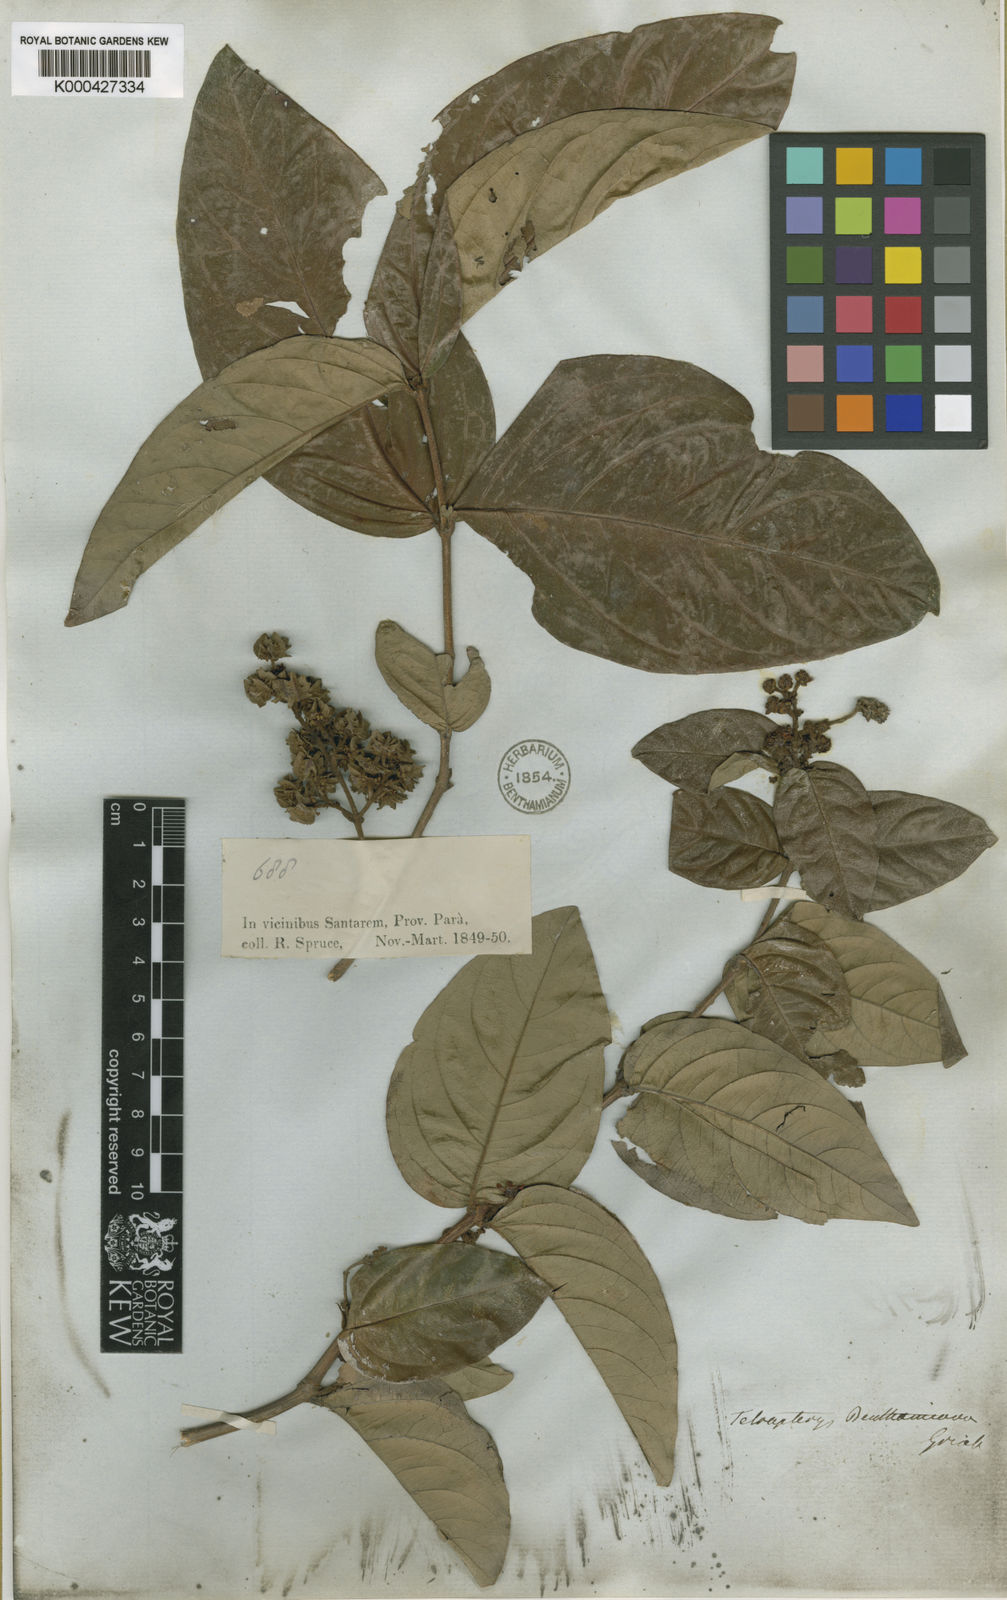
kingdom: Plantae
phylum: Tracheophyta
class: Magnoliopsida
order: Malpighiales
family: Malpighiaceae
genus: Niedenzuella
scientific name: Niedenzuella stannea
